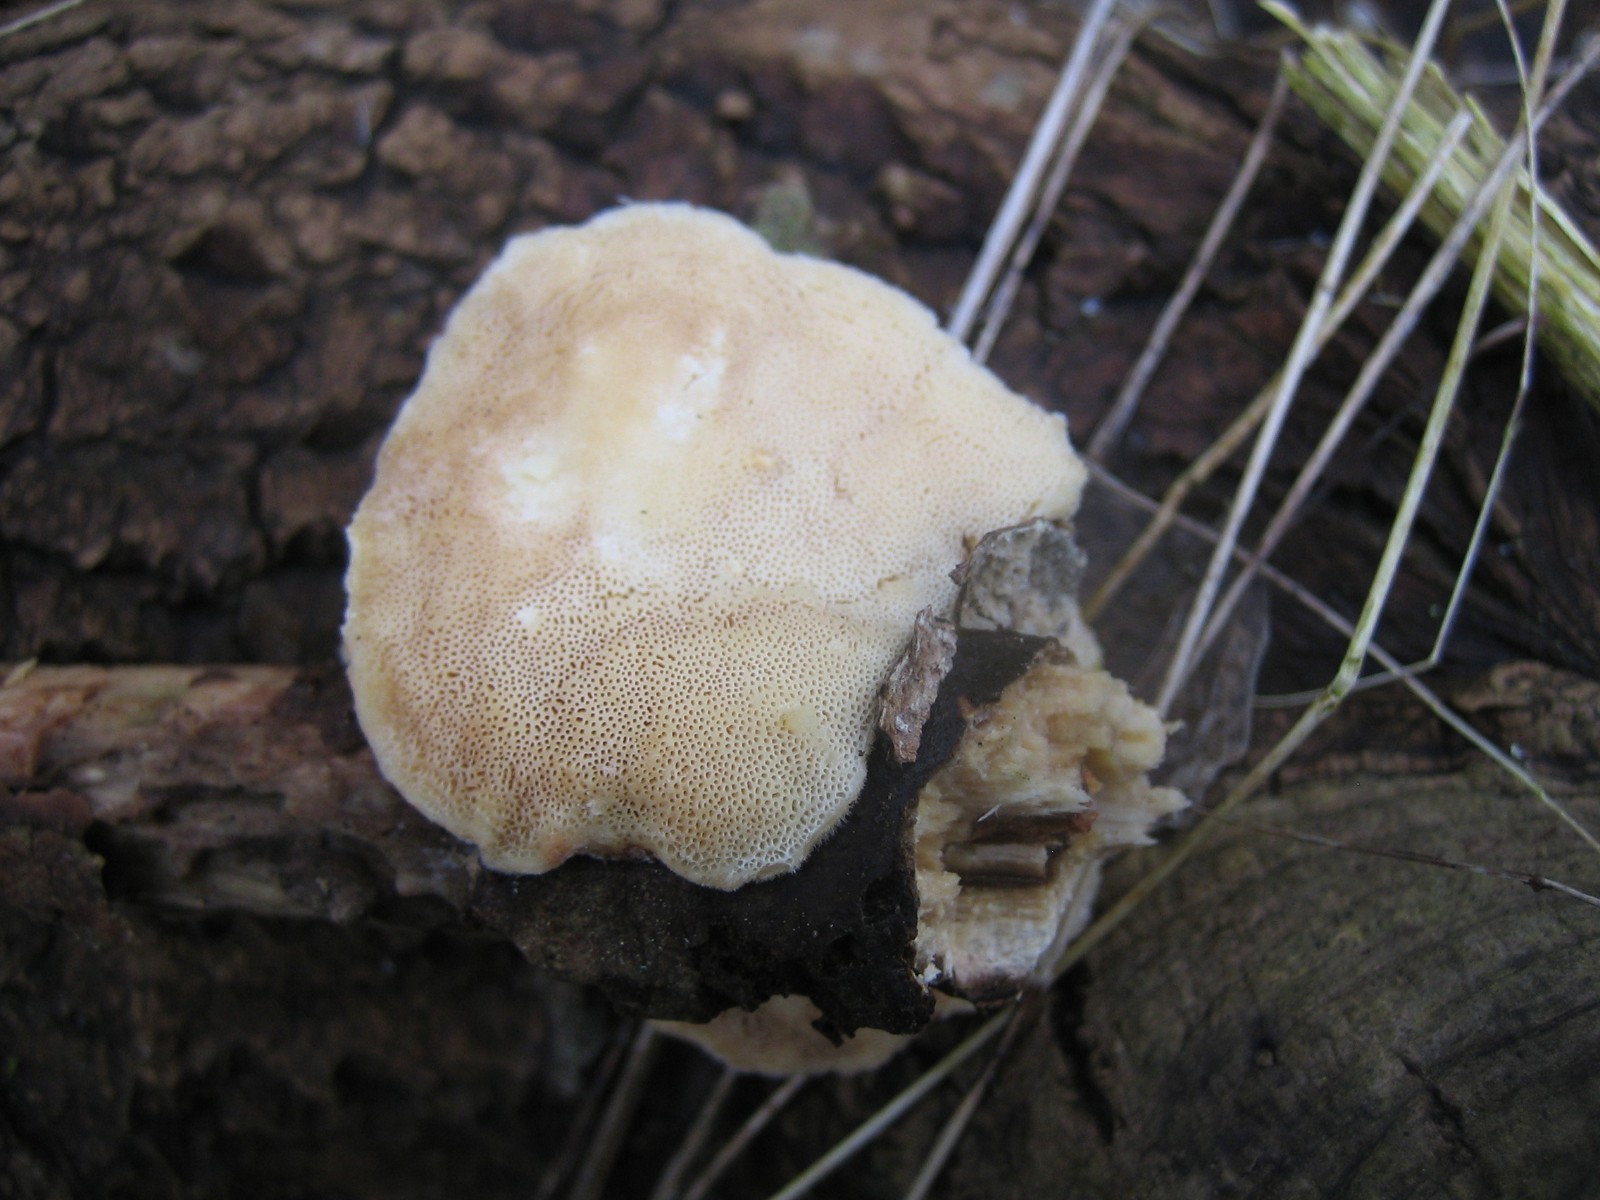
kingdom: Fungi
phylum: Basidiomycota
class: Agaricomycetes
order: Polyporales
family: Polyporaceae
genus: Trametes
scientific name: Trametes ochracea
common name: bæltet læderporesvamp
